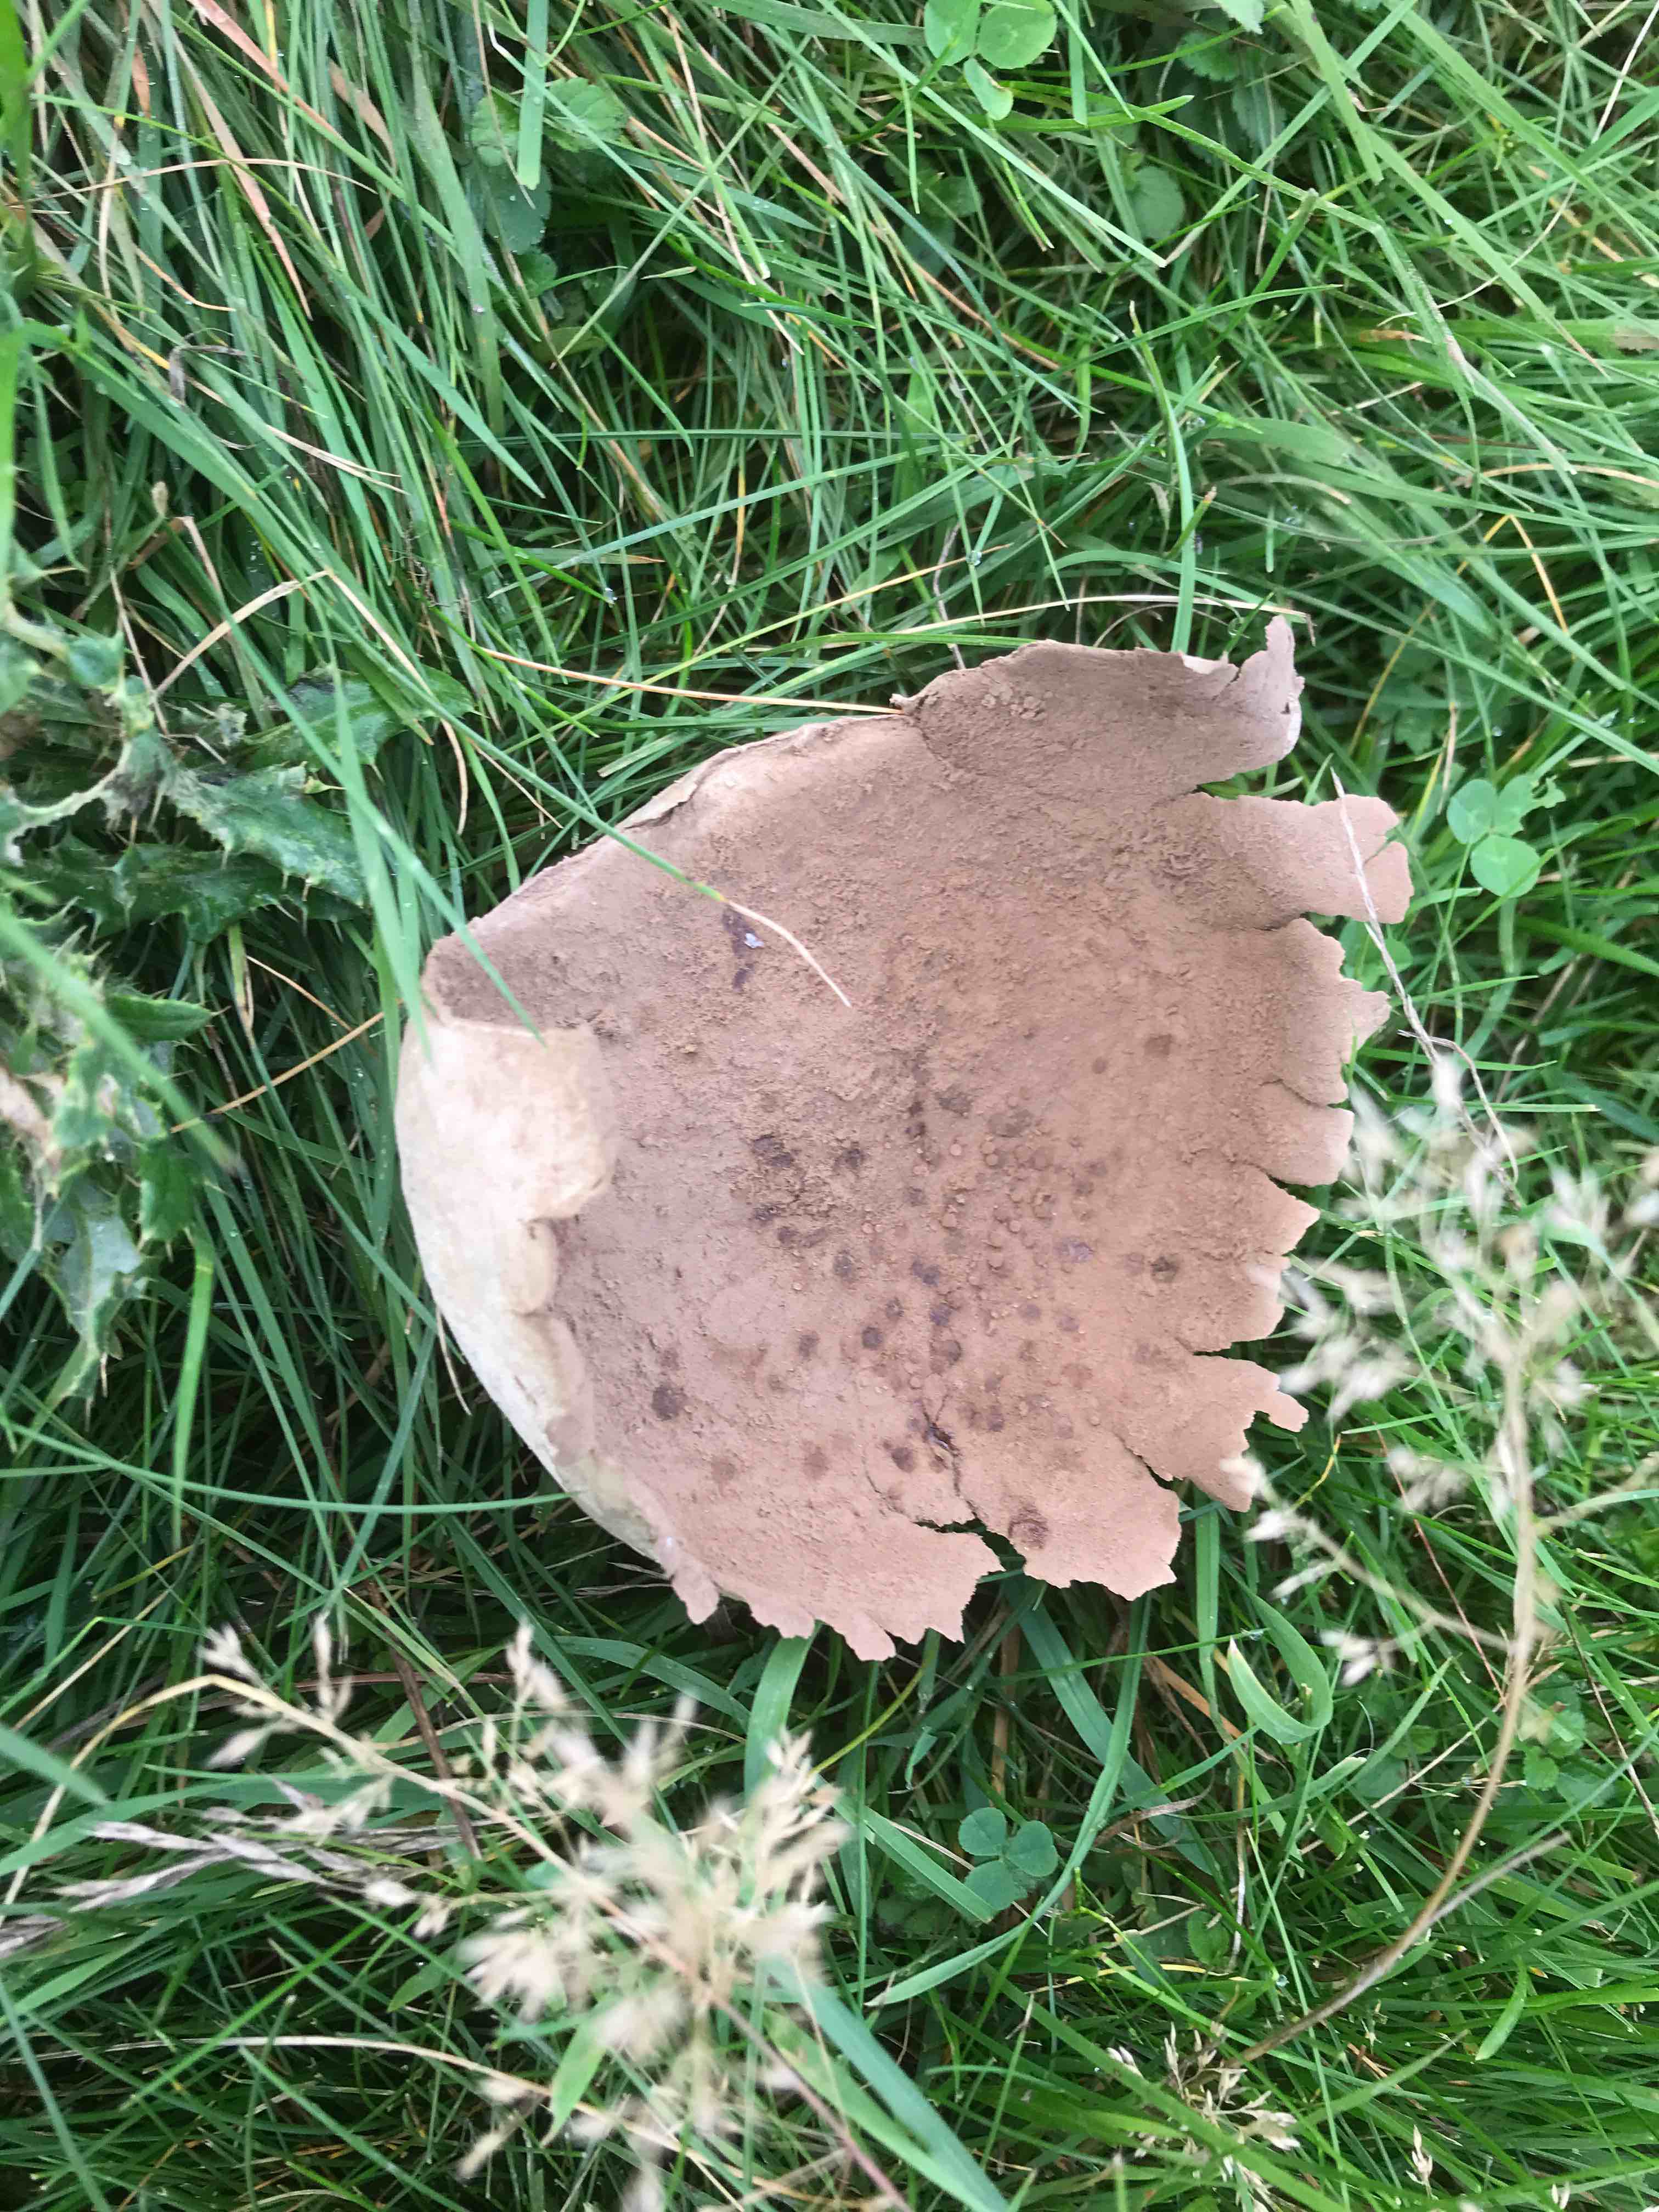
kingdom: Fungi
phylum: Basidiomycota
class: Agaricomycetes
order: Agaricales
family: Lycoperdaceae
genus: Bovistella
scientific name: Bovistella utriformis
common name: skællet støvbold
